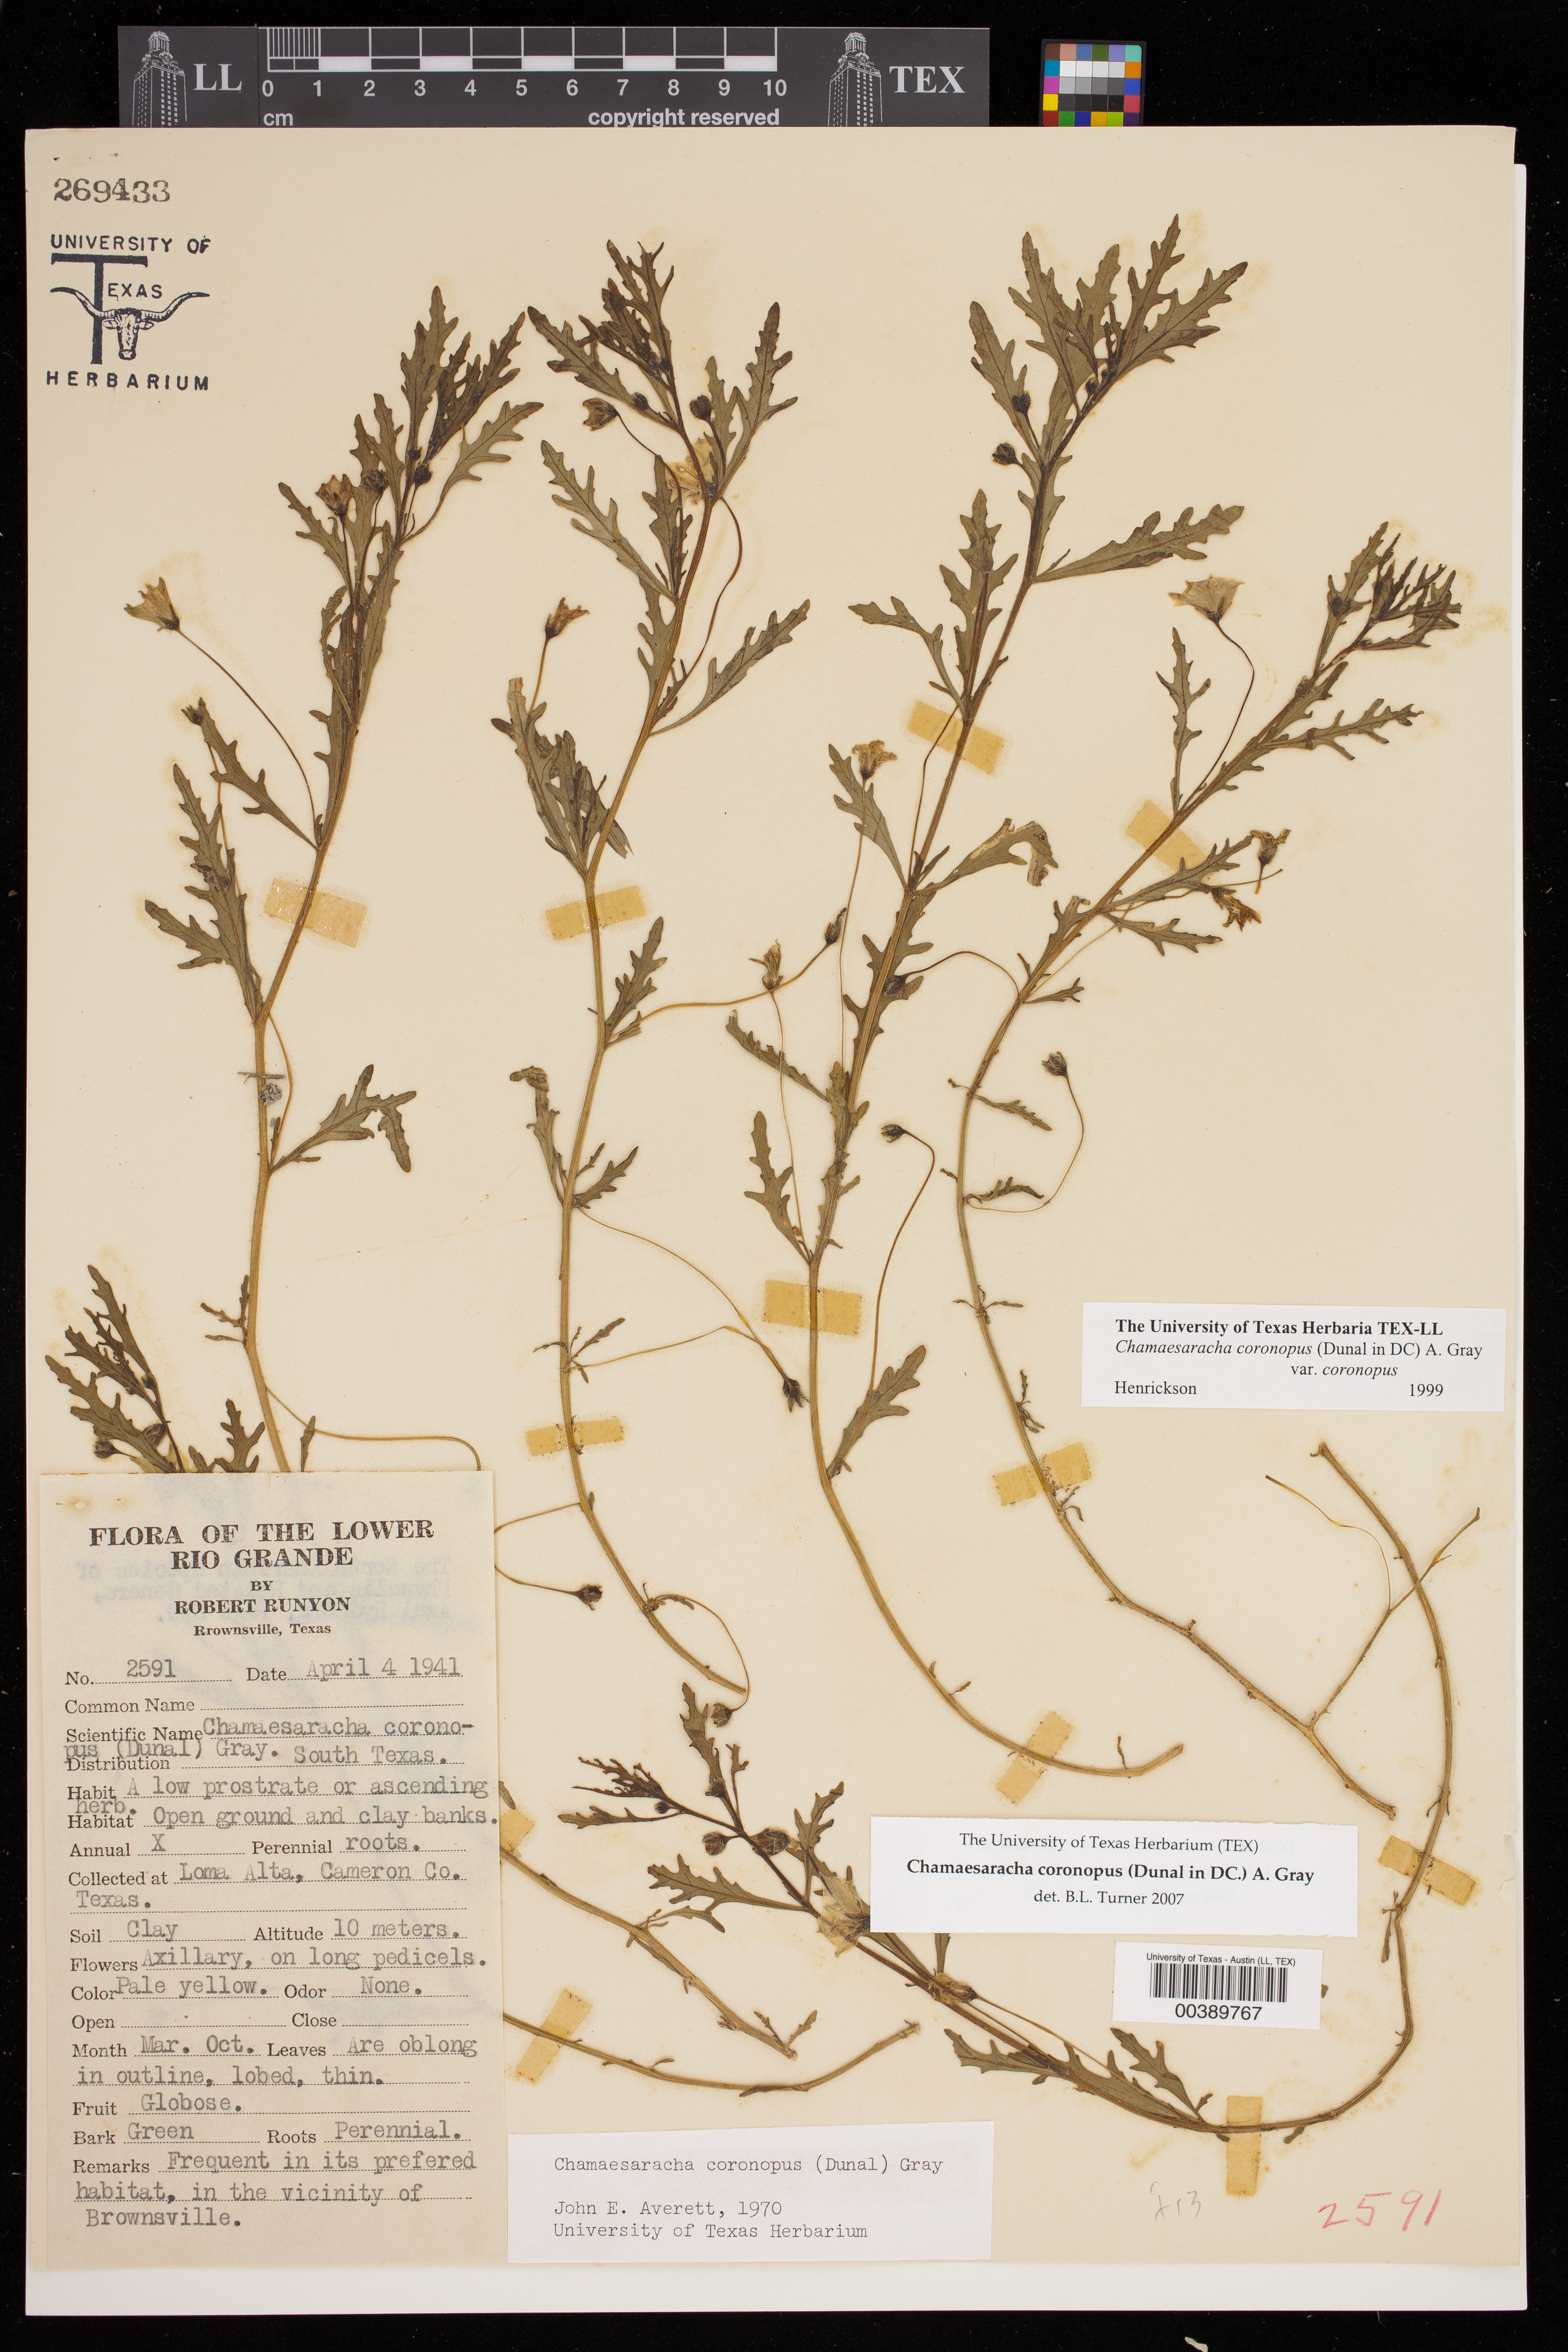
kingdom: Plantae
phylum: Tracheophyta
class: Magnoliopsida
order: Solanales
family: Solanaceae
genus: Chamaesaracha
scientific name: Chamaesaracha coronopus
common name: Smooth chamaesaracha
